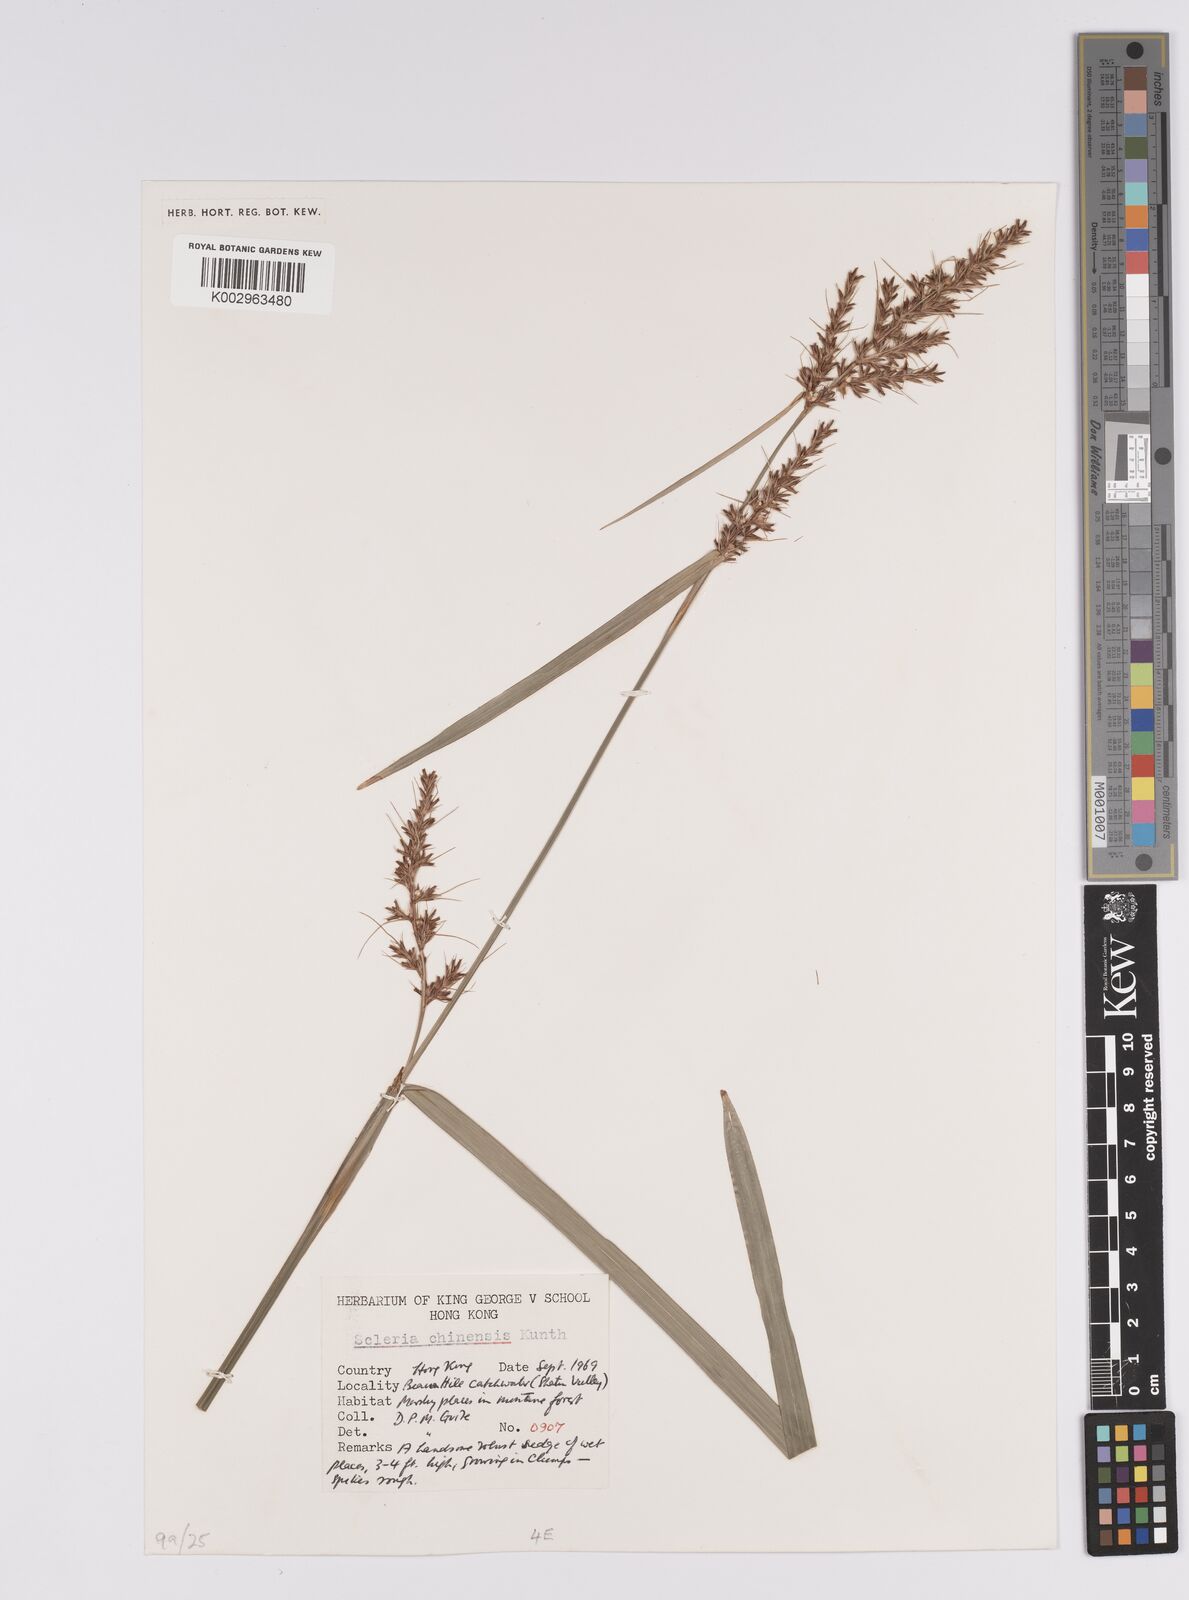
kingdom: Plantae
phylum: Tracheophyta
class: Liliopsida
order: Poales
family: Cyperaceae
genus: Scleria
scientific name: Scleria ciliaris
